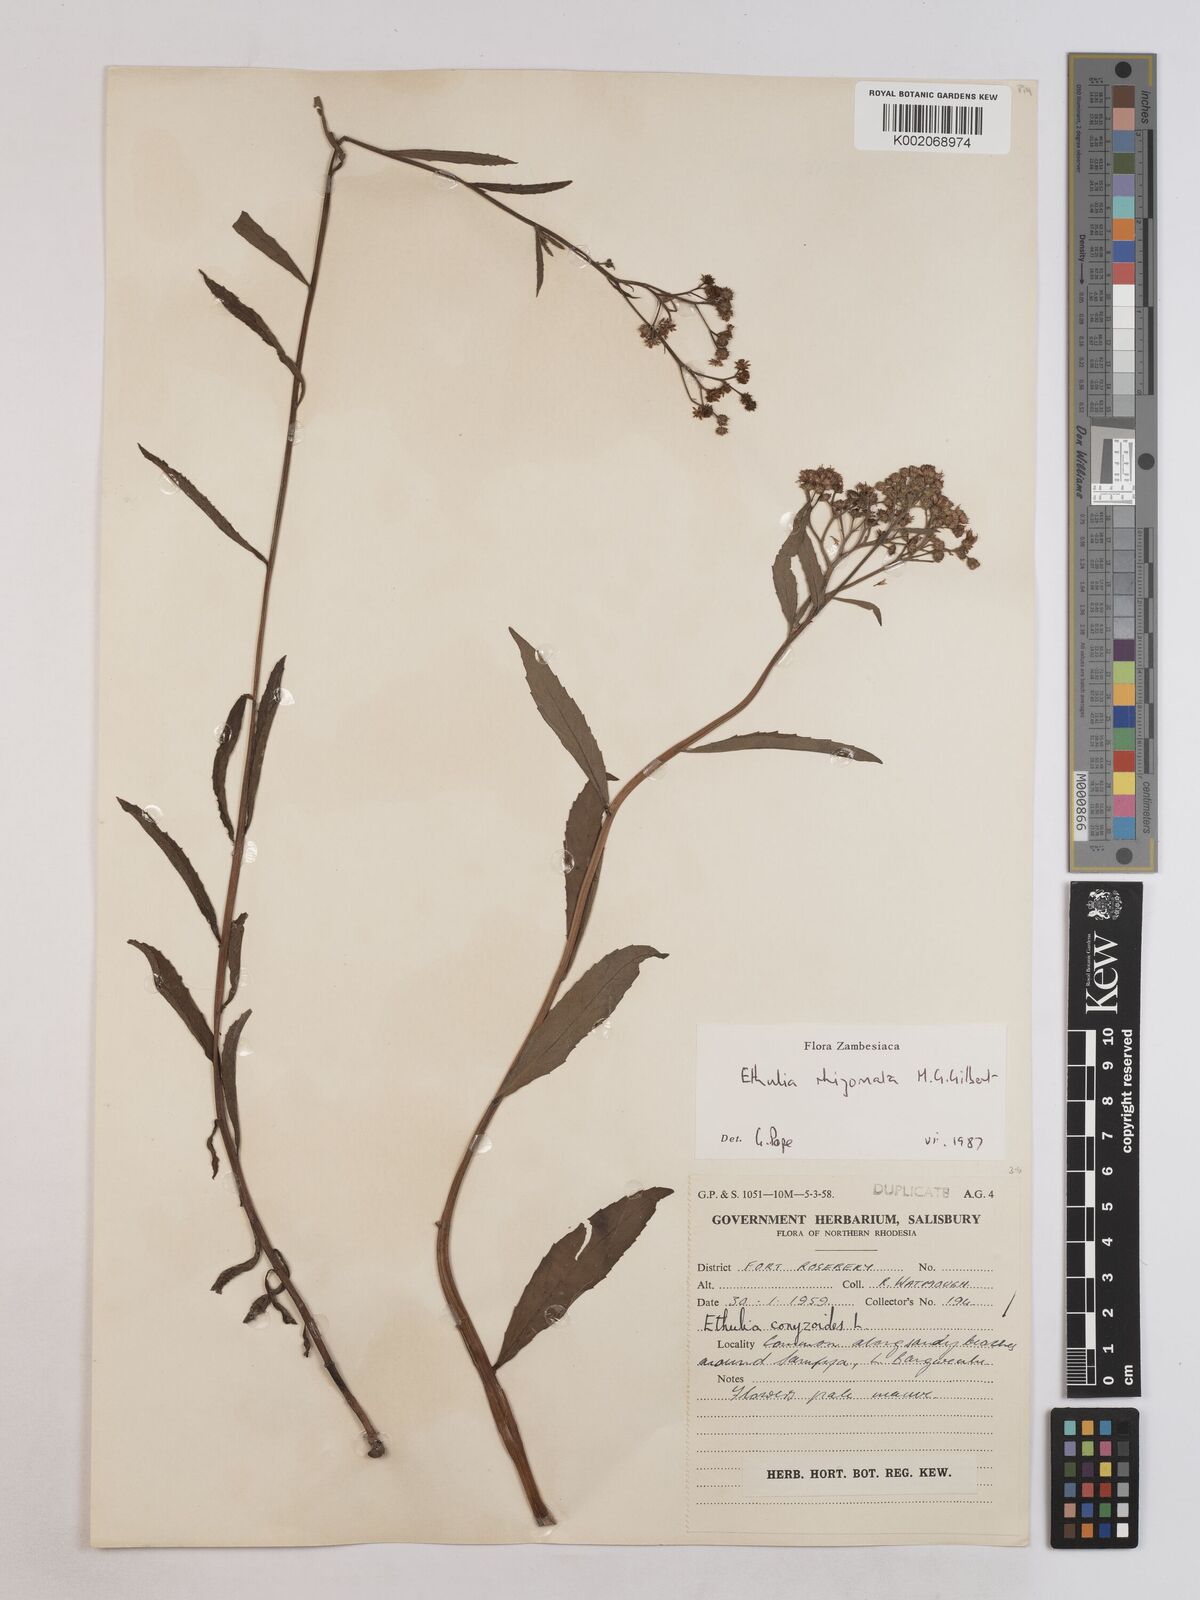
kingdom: Plantae
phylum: Tracheophyta
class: Magnoliopsida
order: Asterales
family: Asteraceae
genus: Ethulia
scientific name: Ethulia rhizomata
